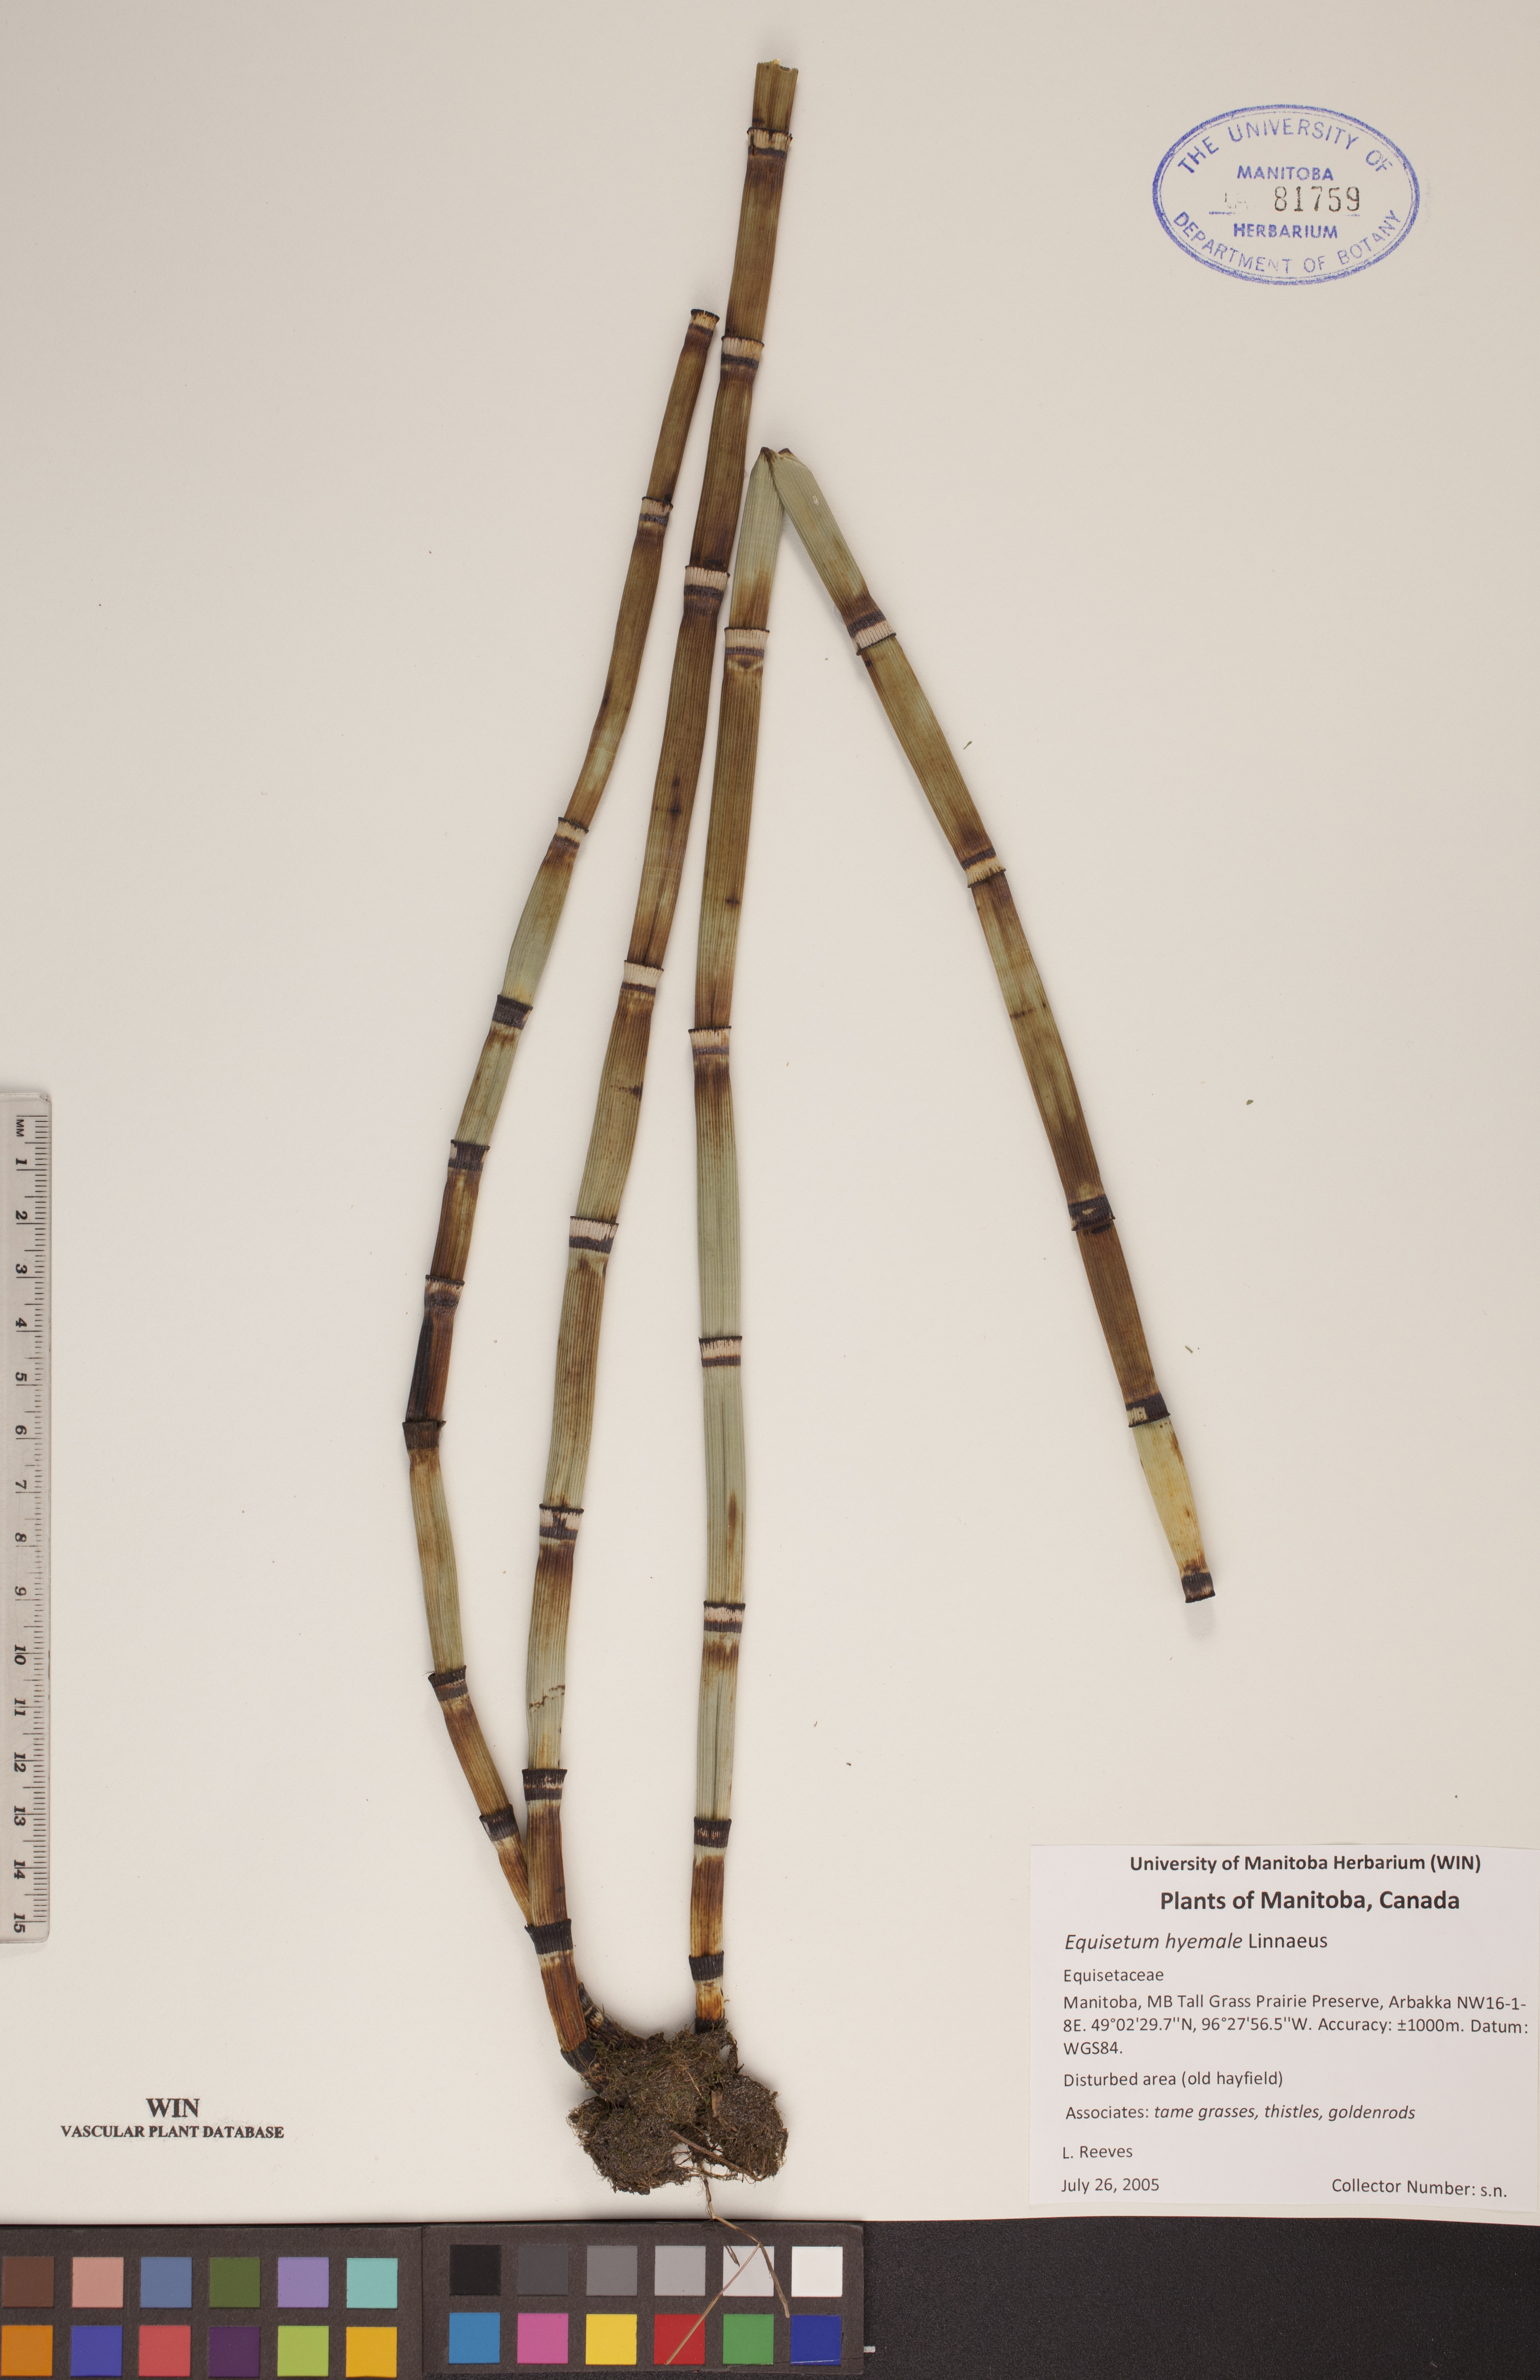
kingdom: Plantae
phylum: Tracheophyta
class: Polypodiopsida
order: Equisetales
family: Equisetaceae
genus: Equisetum
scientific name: Equisetum hyemale
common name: Rough horsetail
